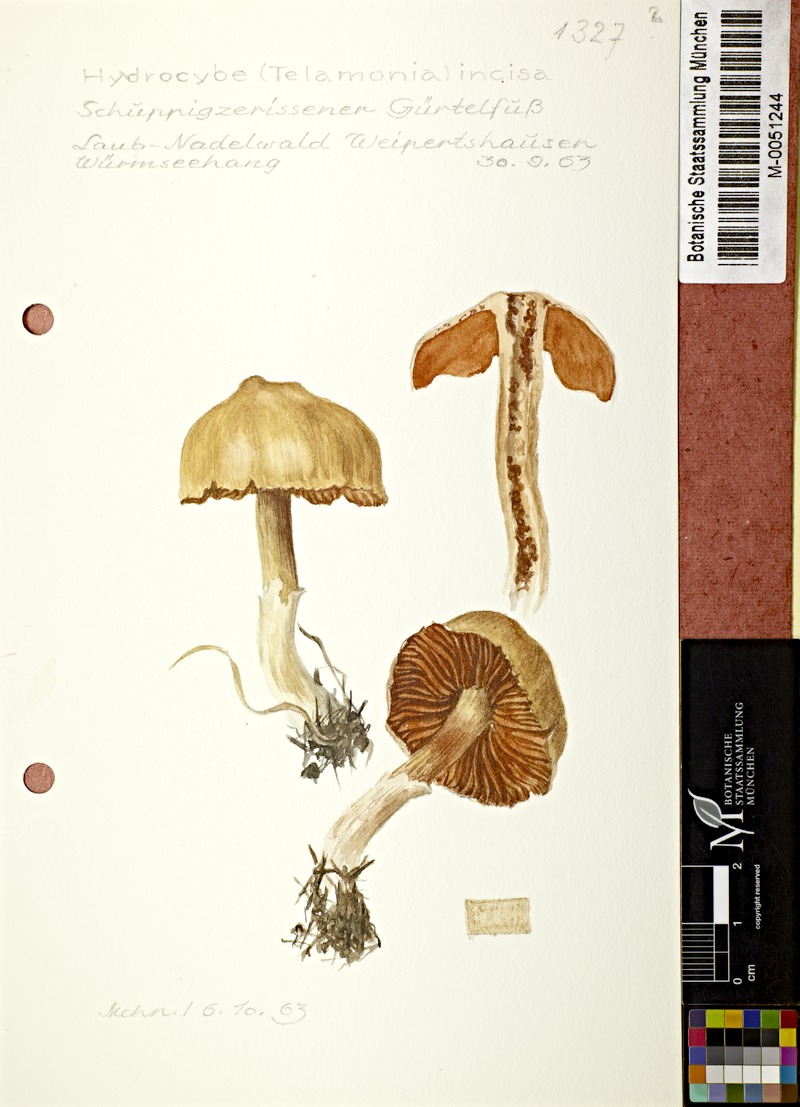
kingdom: Fungi
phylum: Basidiomycota
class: Agaricomycetes
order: Agaricales
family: Cortinariaceae
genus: Cortinarius
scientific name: Cortinarius incisus
